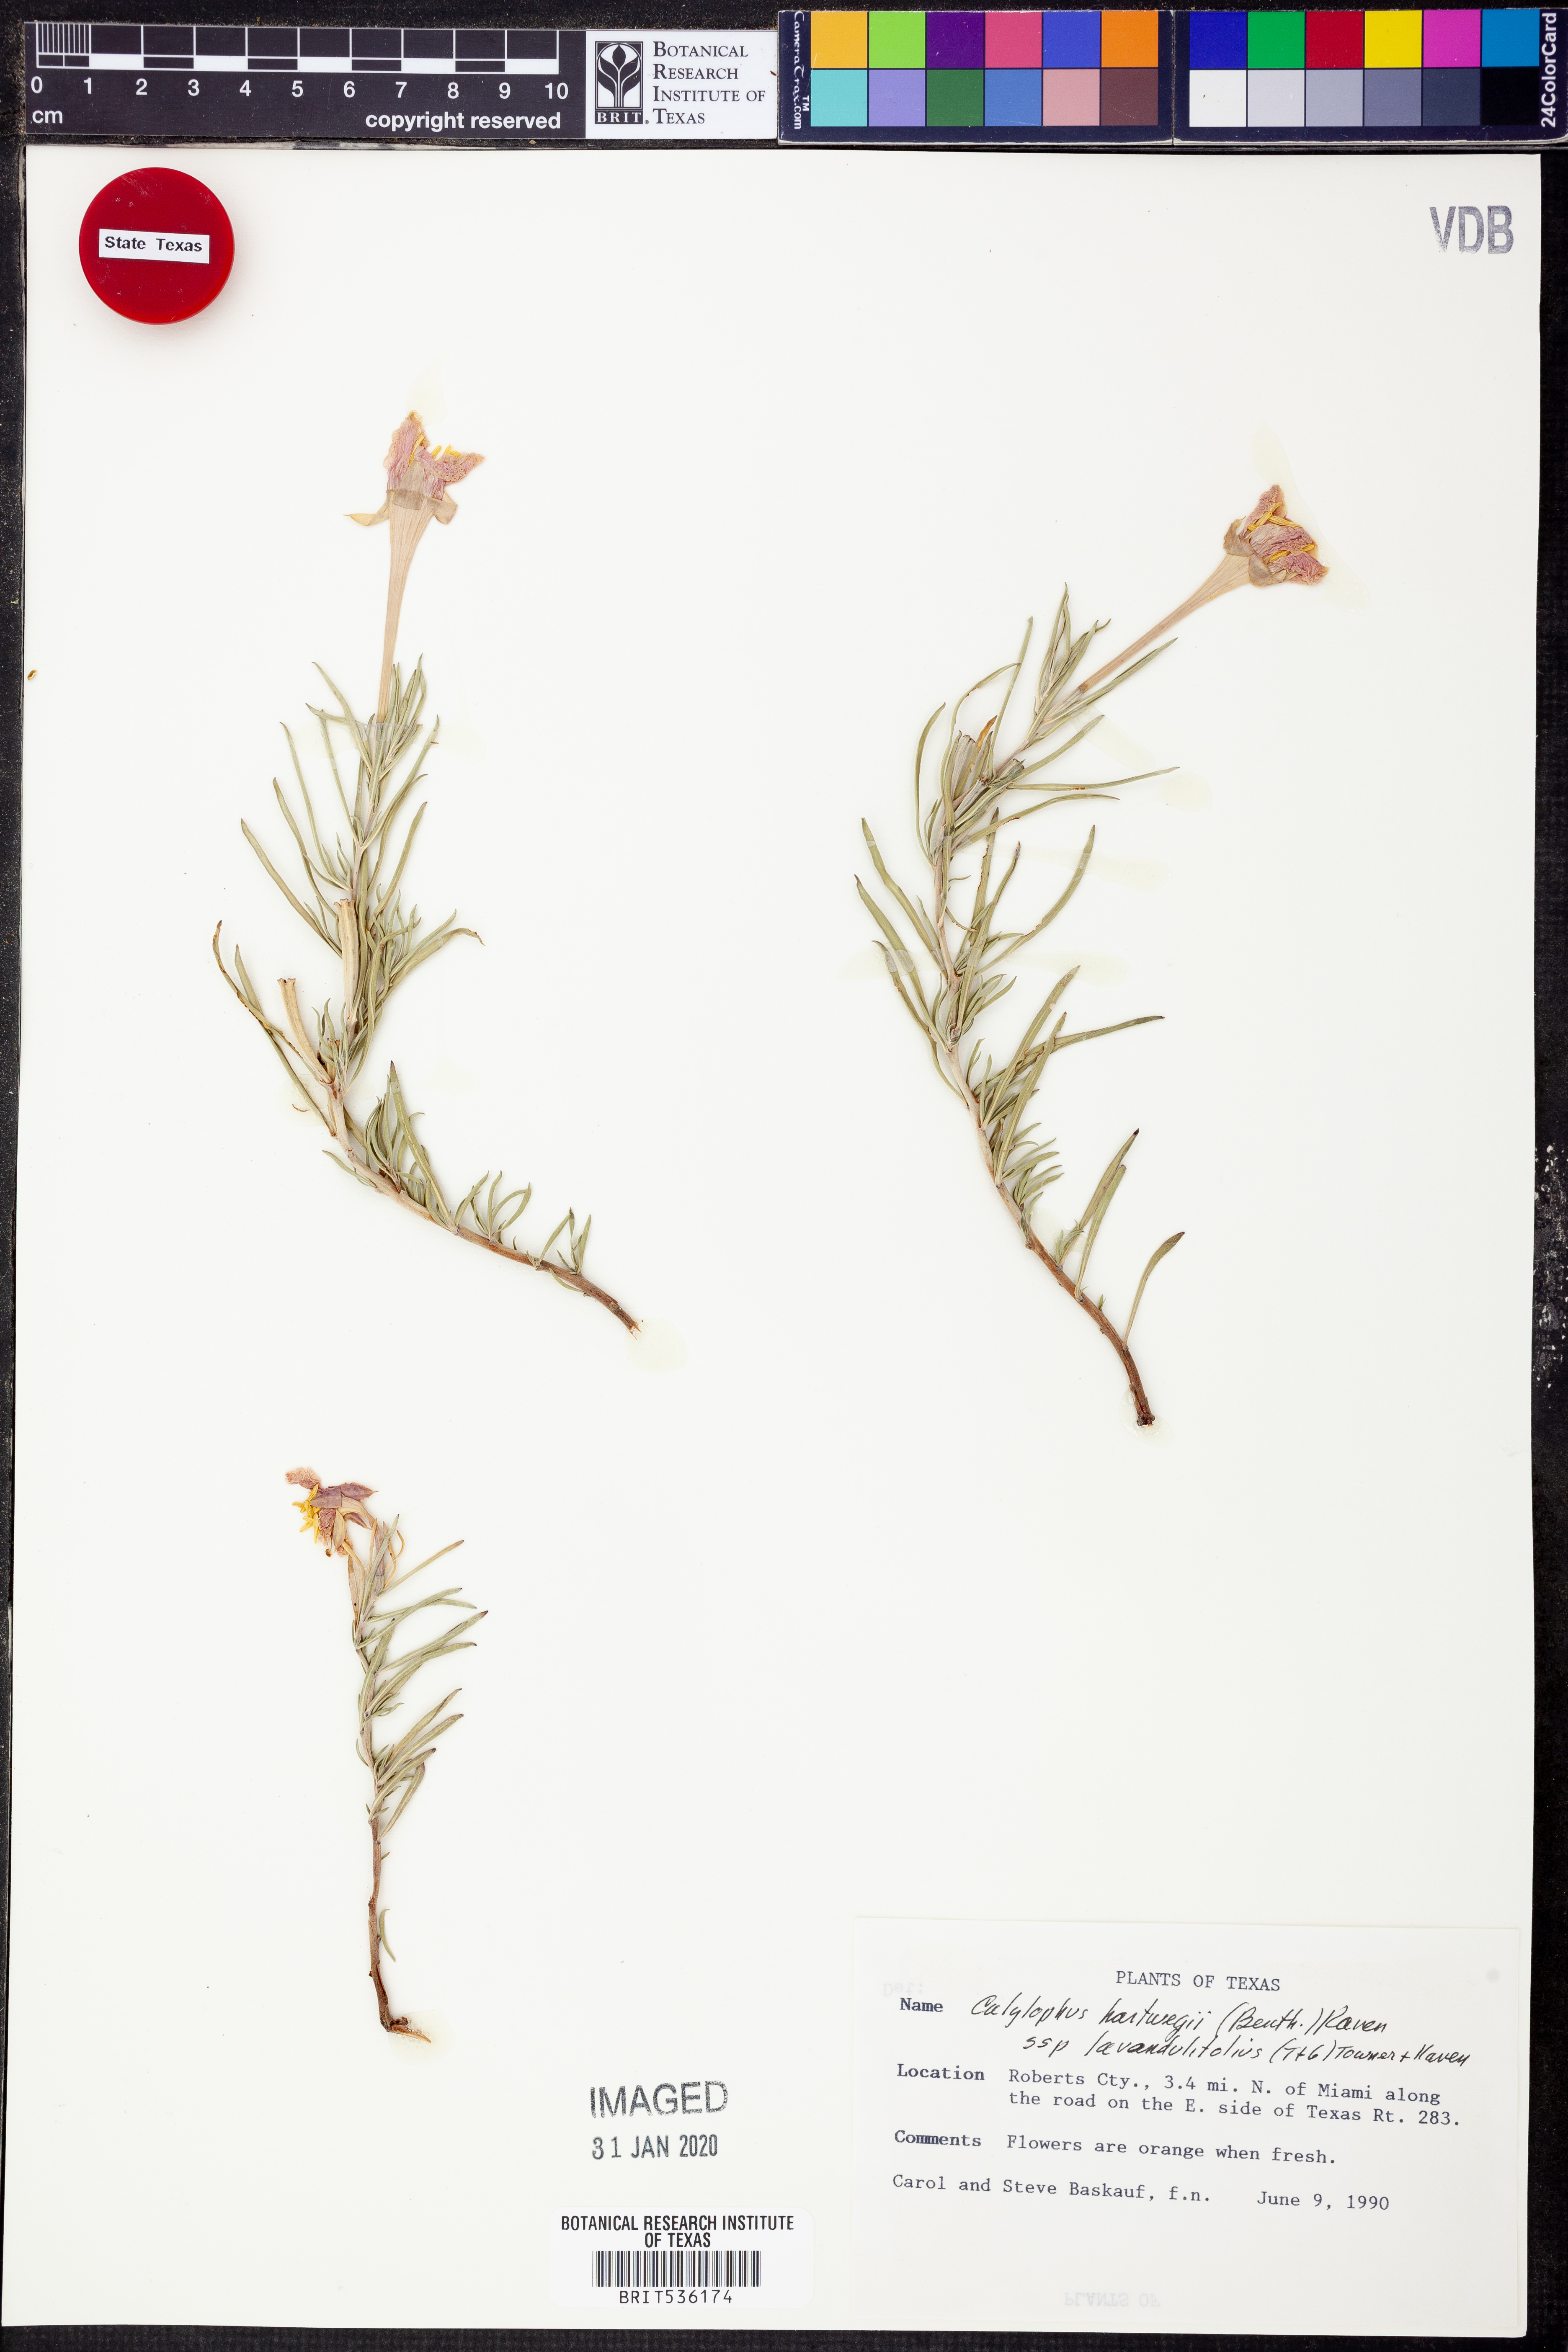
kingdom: Plantae
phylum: Tracheophyta
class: Magnoliopsida
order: Myrtales
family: Onagraceae
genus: Oenothera
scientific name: Oenothera lavandulifolia
